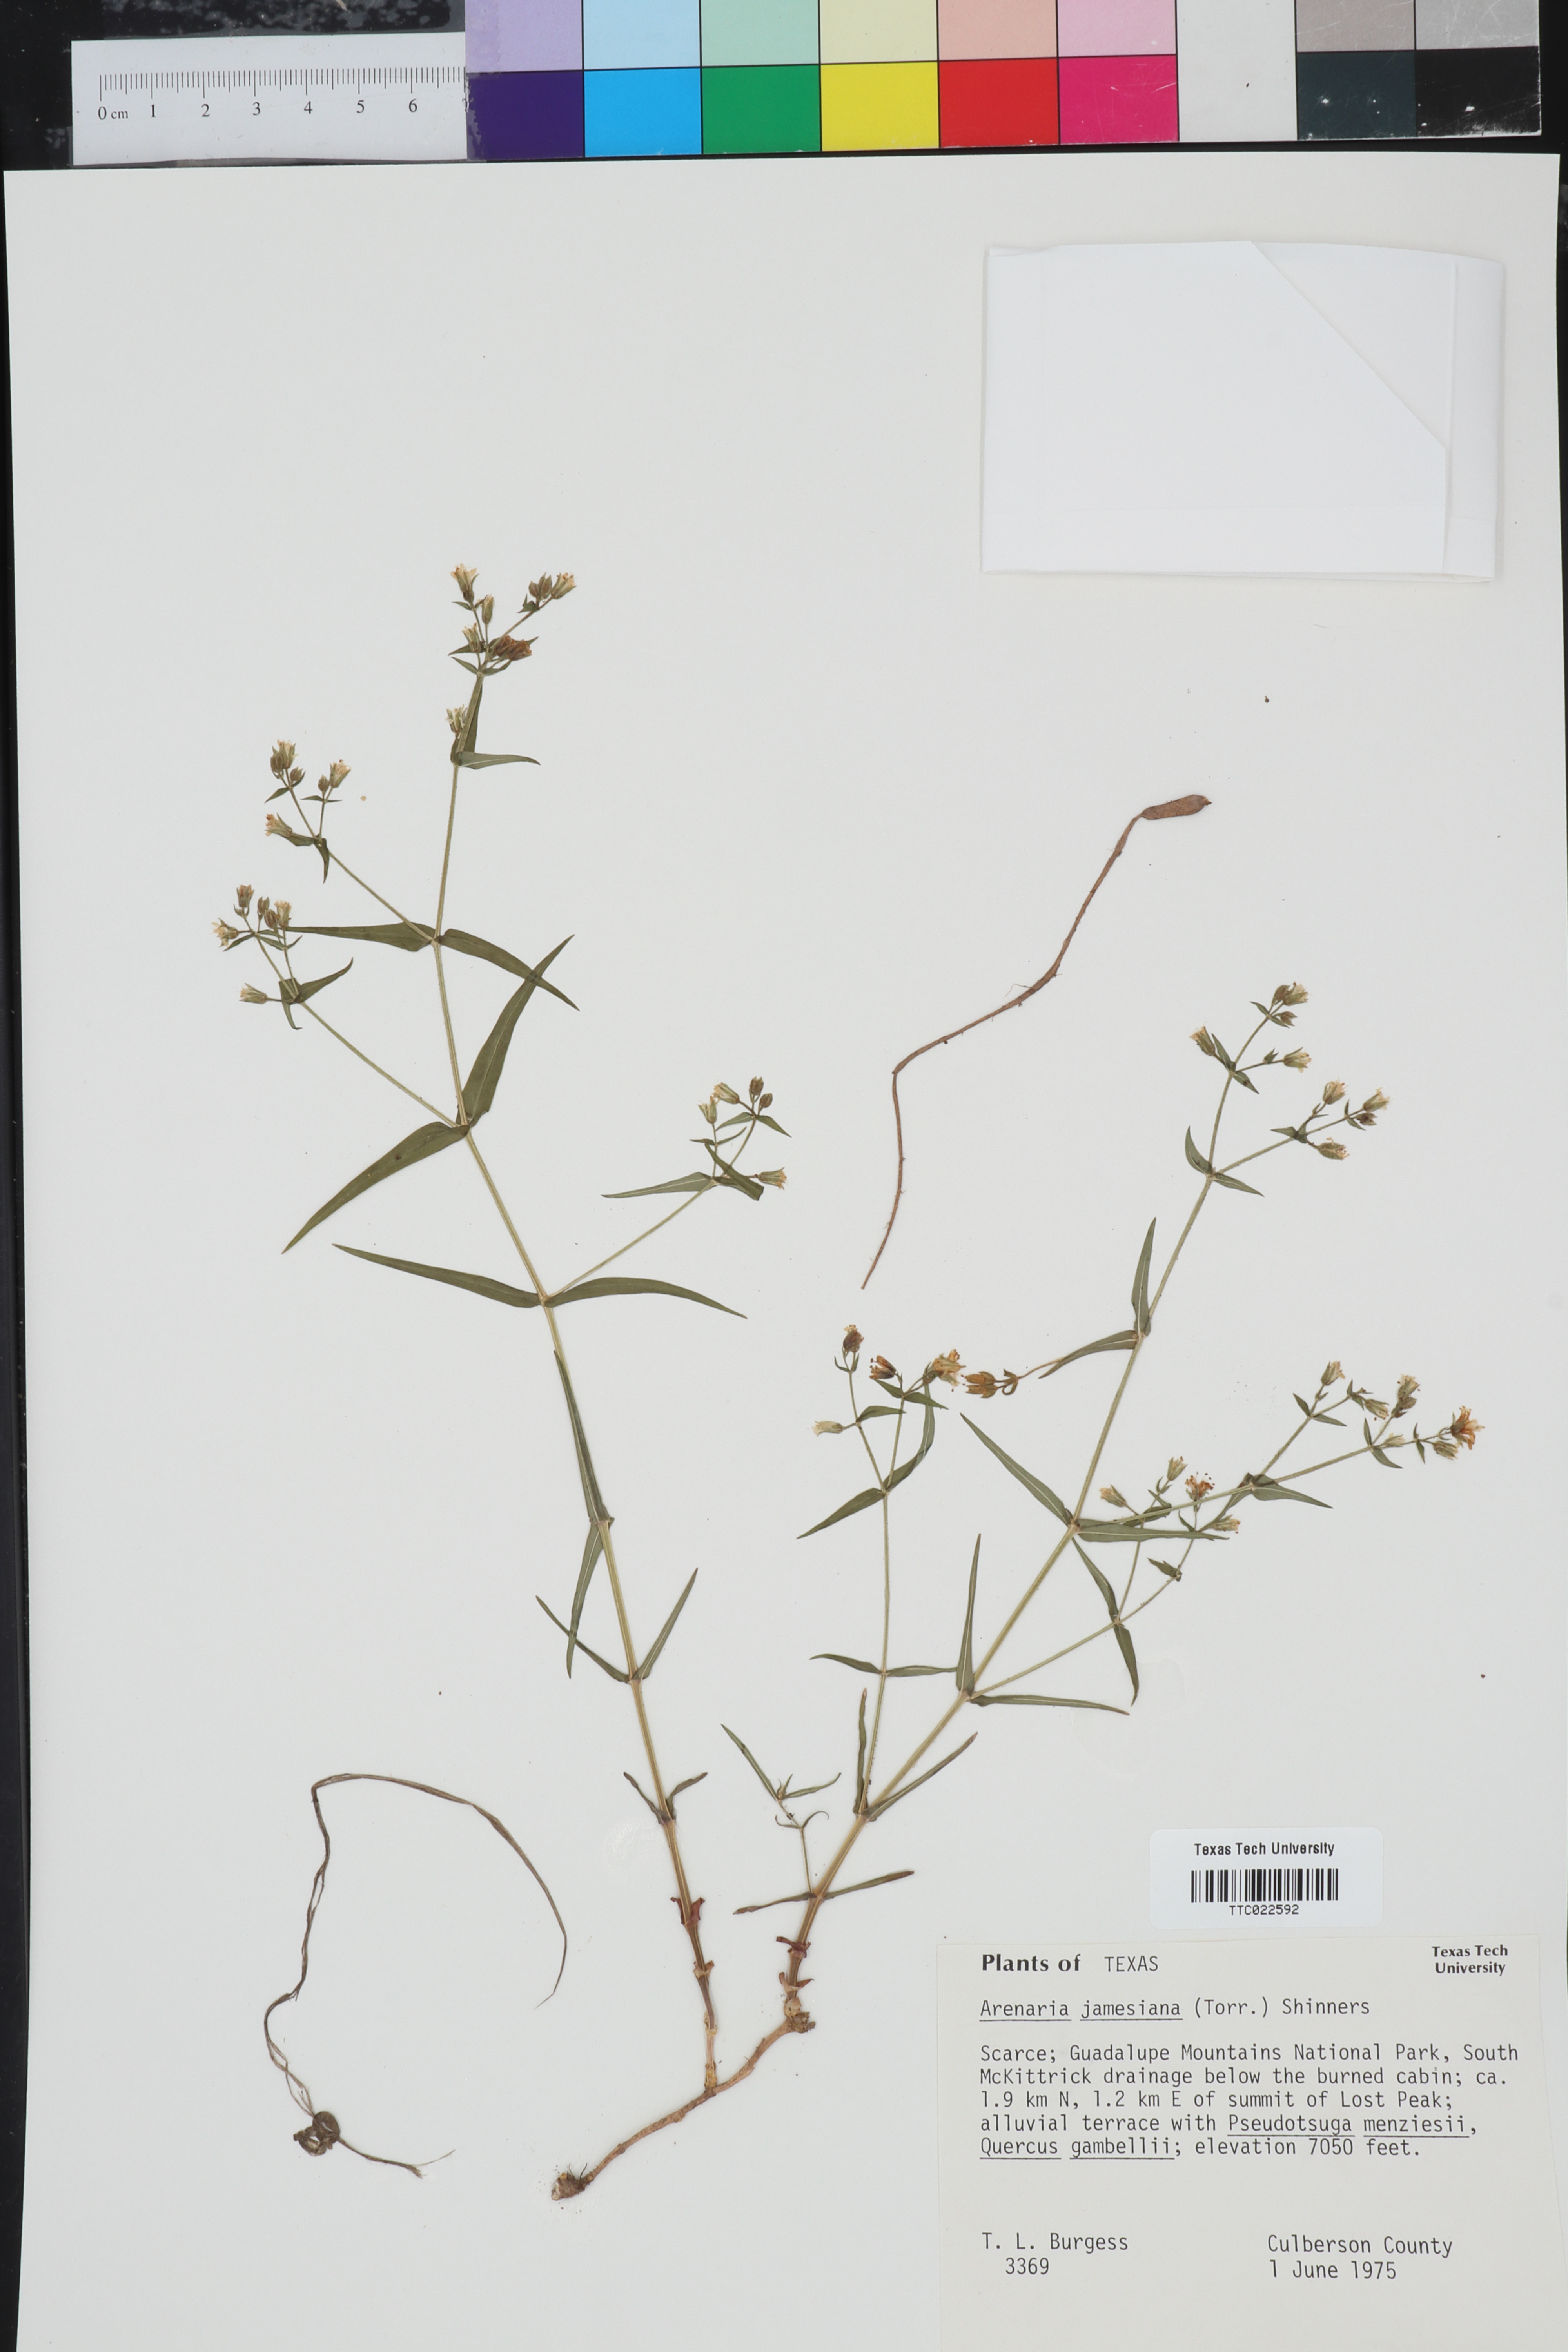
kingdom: Plantae
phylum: Tracheophyta
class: Magnoliopsida
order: Caryophyllales
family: Caryophyllaceae
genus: Schizotechium
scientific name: Schizotechium jamesianum
